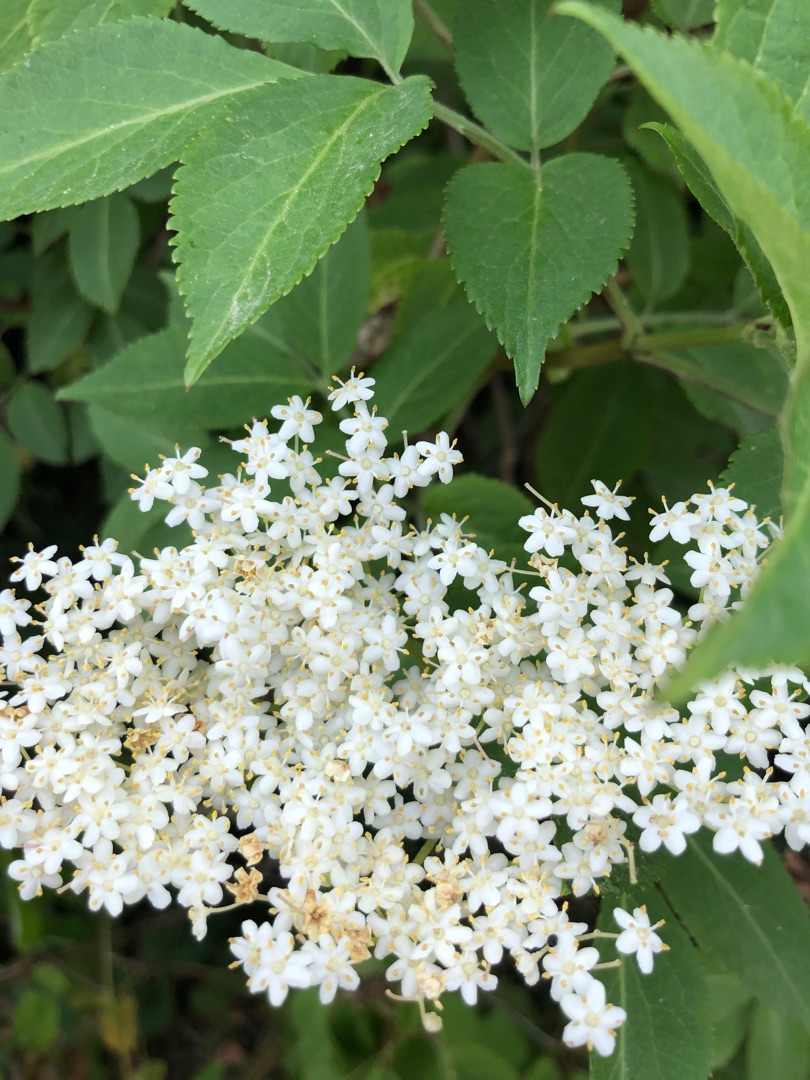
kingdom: Plantae
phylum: Tracheophyta
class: Magnoliopsida
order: Dipsacales
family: Viburnaceae
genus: Sambucus
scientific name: Sambucus nigra
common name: Almindelig hyld
